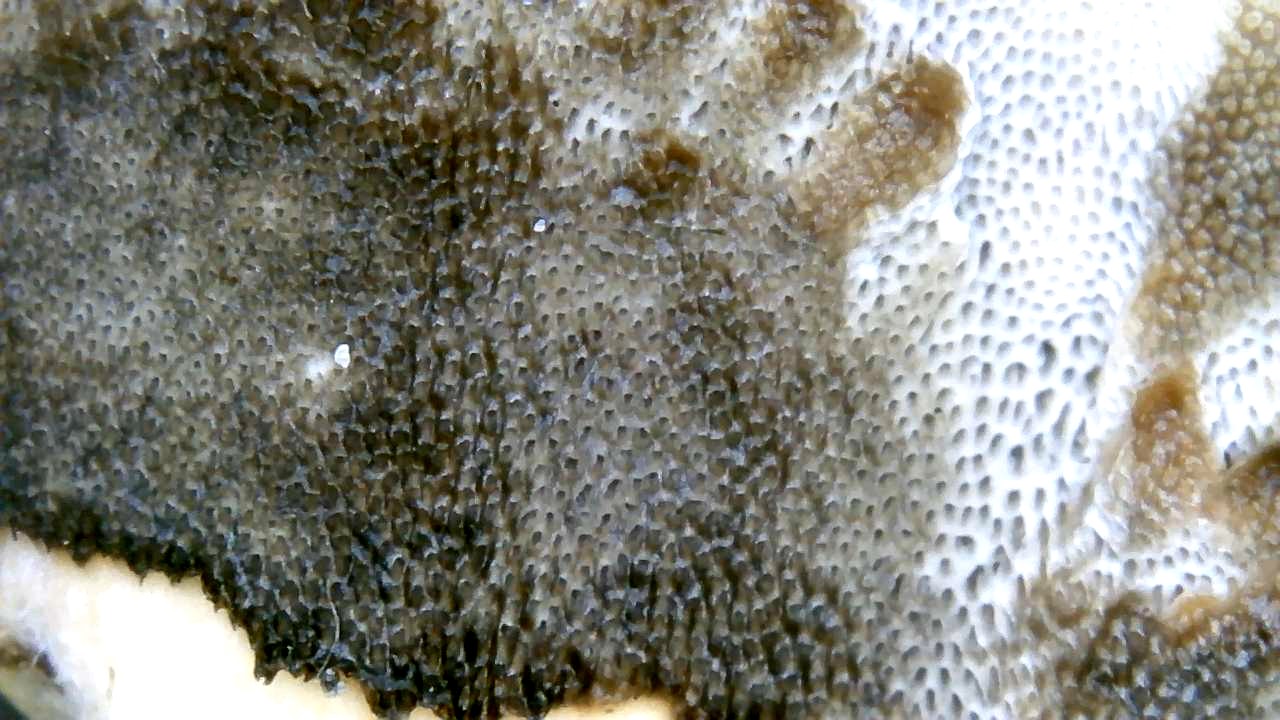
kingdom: Fungi
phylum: Basidiomycota
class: Agaricomycetes
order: Polyporales
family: Phanerochaetaceae
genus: Bjerkandera
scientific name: Bjerkandera adusta
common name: sveden sodporesvamp
